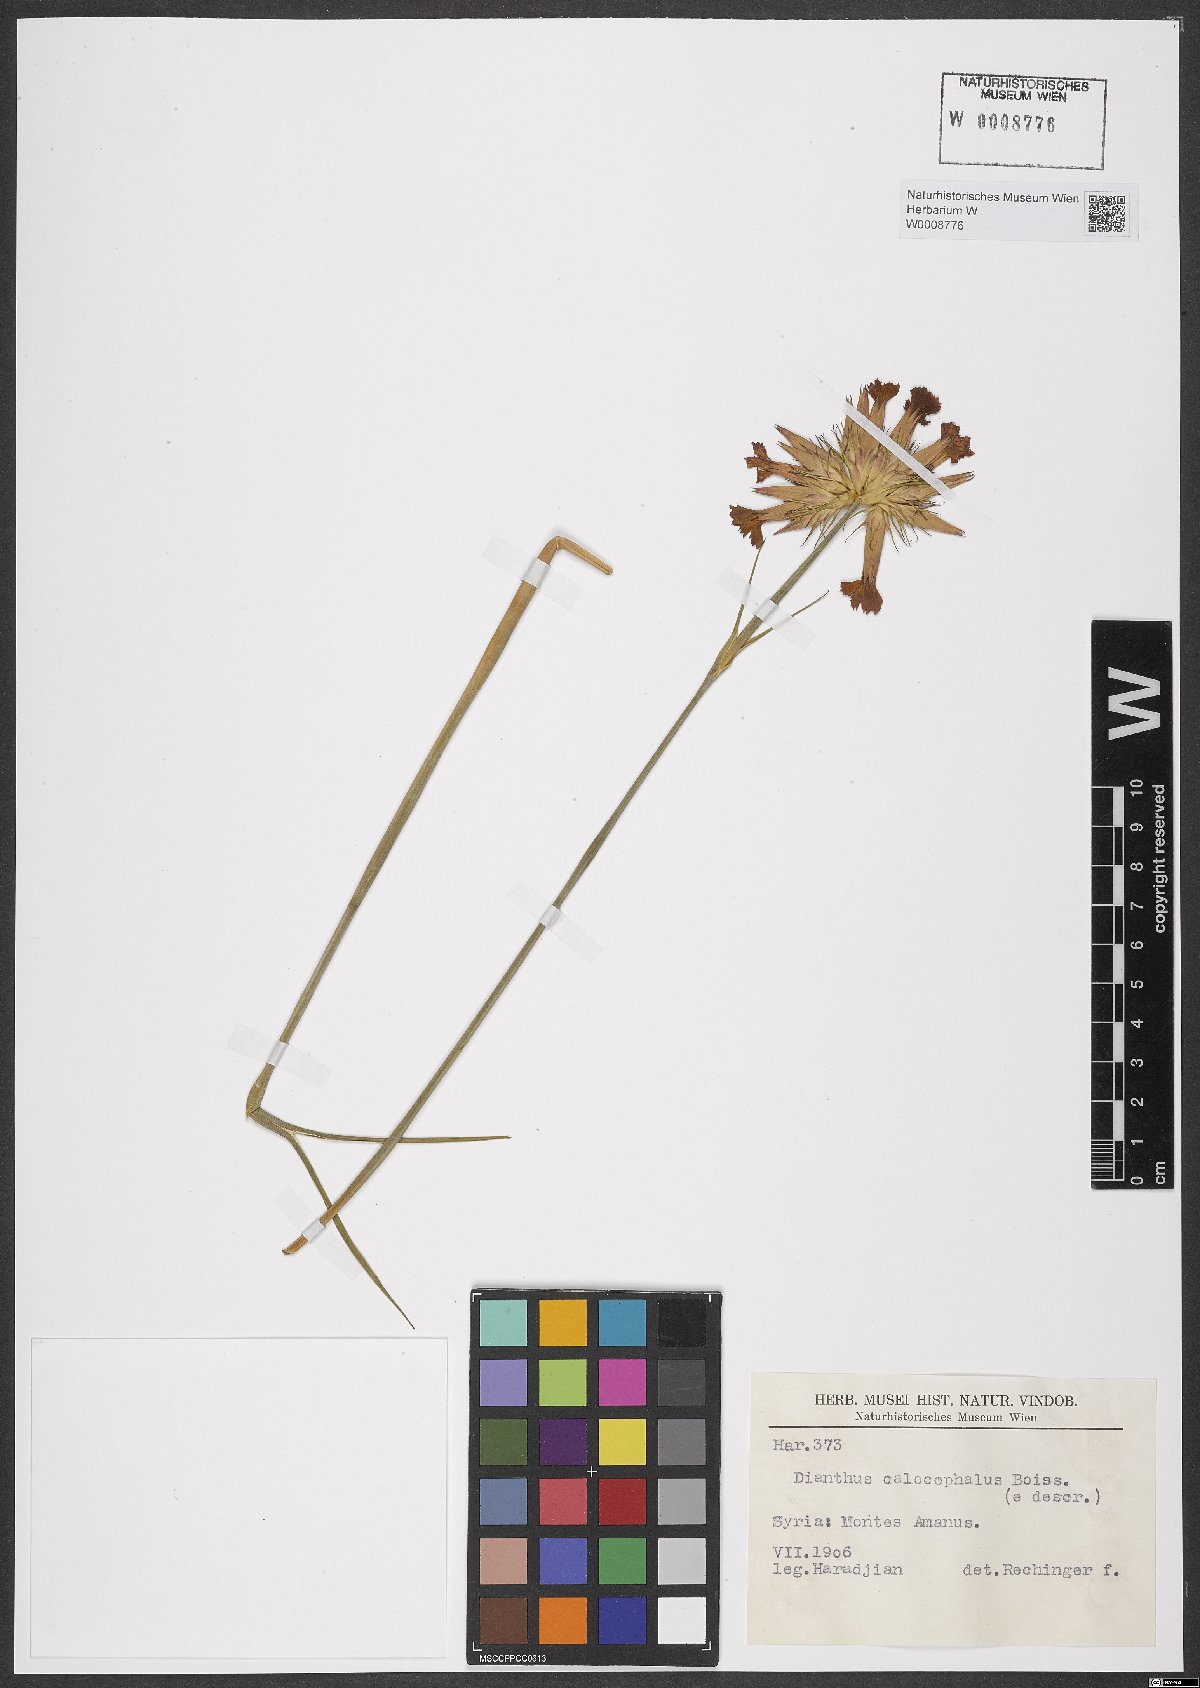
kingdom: Plantae
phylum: Tracheophyta
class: Magnoliopsida
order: Caryophyllales
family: Caryophyllaceae
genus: Dianthus
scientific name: Dianthus cruentus
